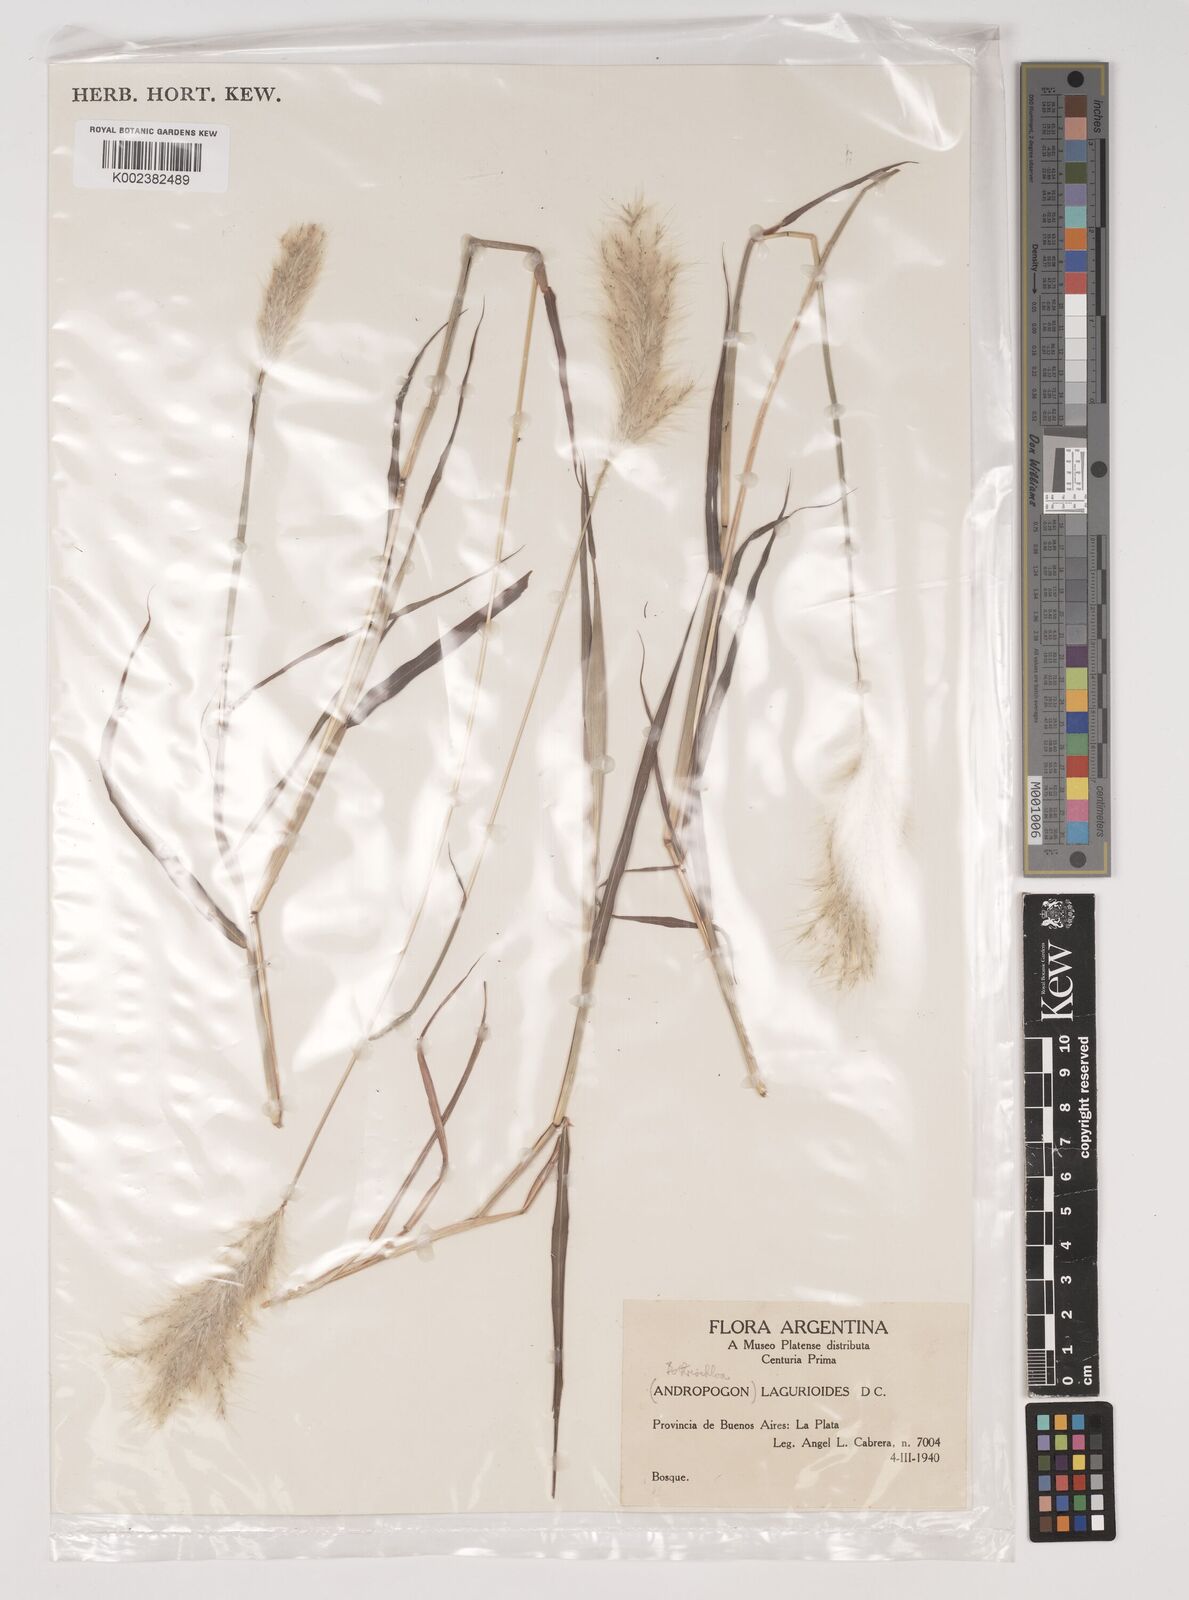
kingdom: Plantae
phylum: Tracheophyta
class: Liliopsida
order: Poales
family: Poaceae
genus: Bothriochloa
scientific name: Bothriochloa laguroides
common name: Silver bluestem
